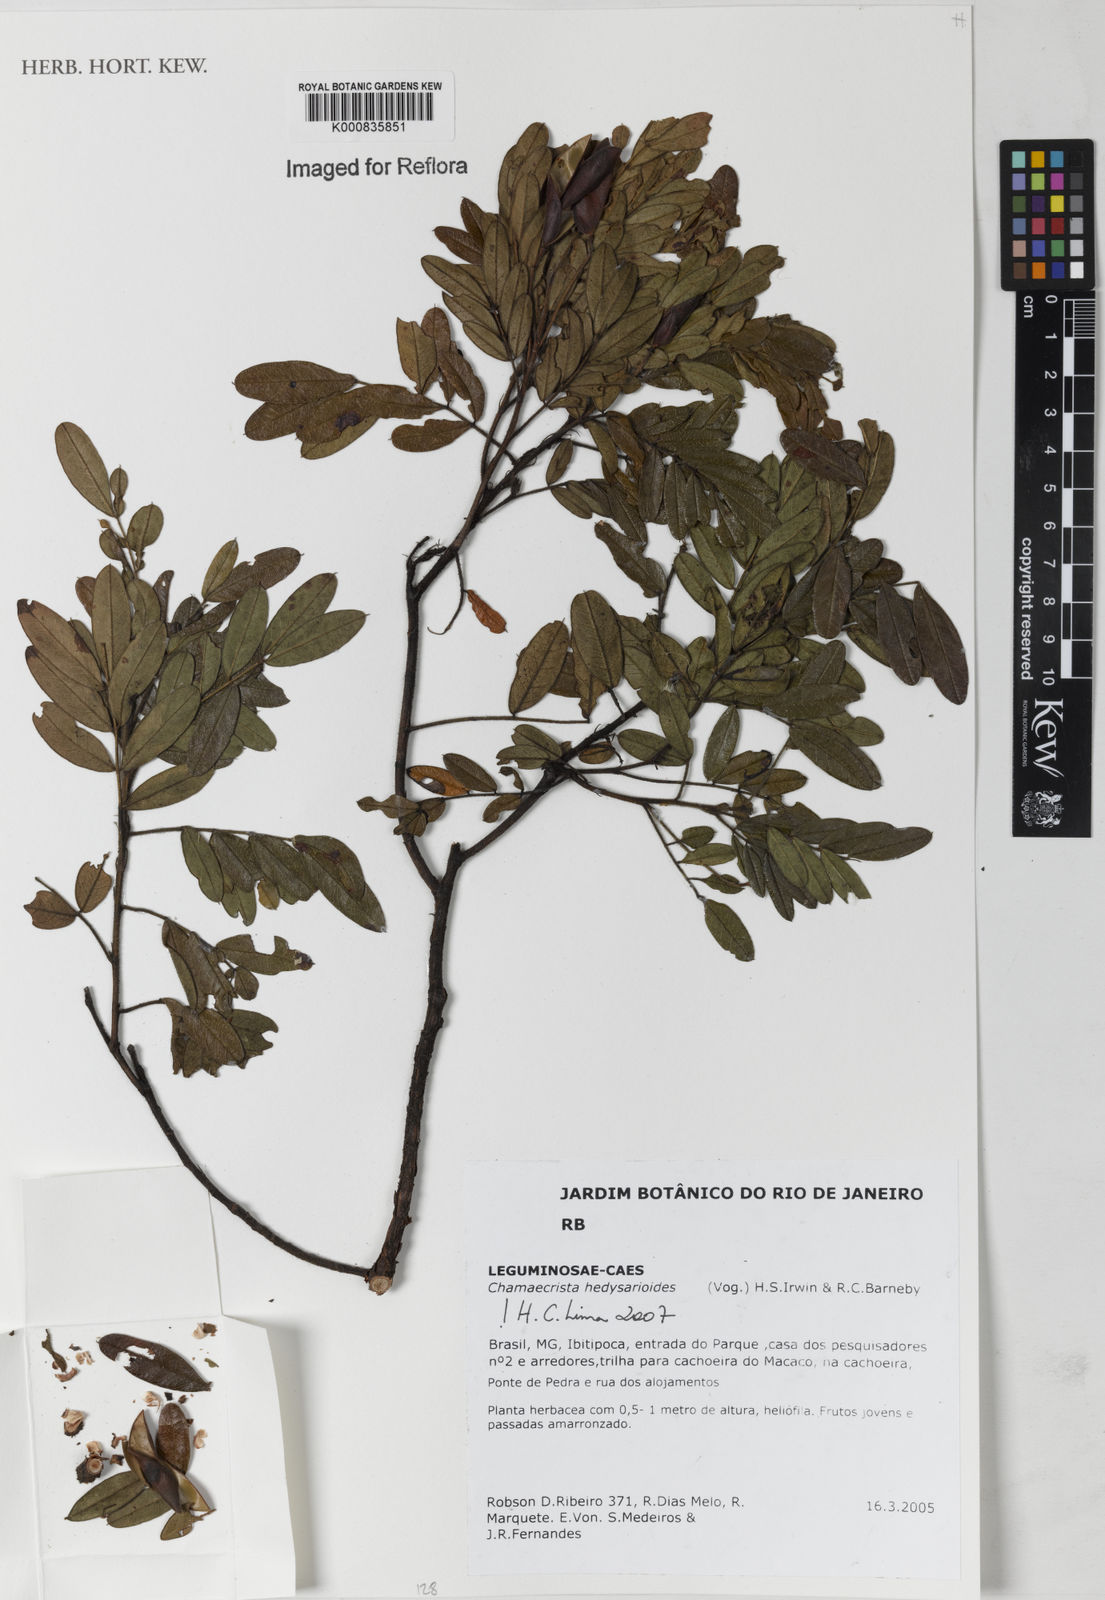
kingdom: Plantae
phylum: Tracheophyta
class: Magnoliopsida
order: Fabales
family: Fabaceae
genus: Chamaecrista
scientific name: Chamaecrista hedysaroides
